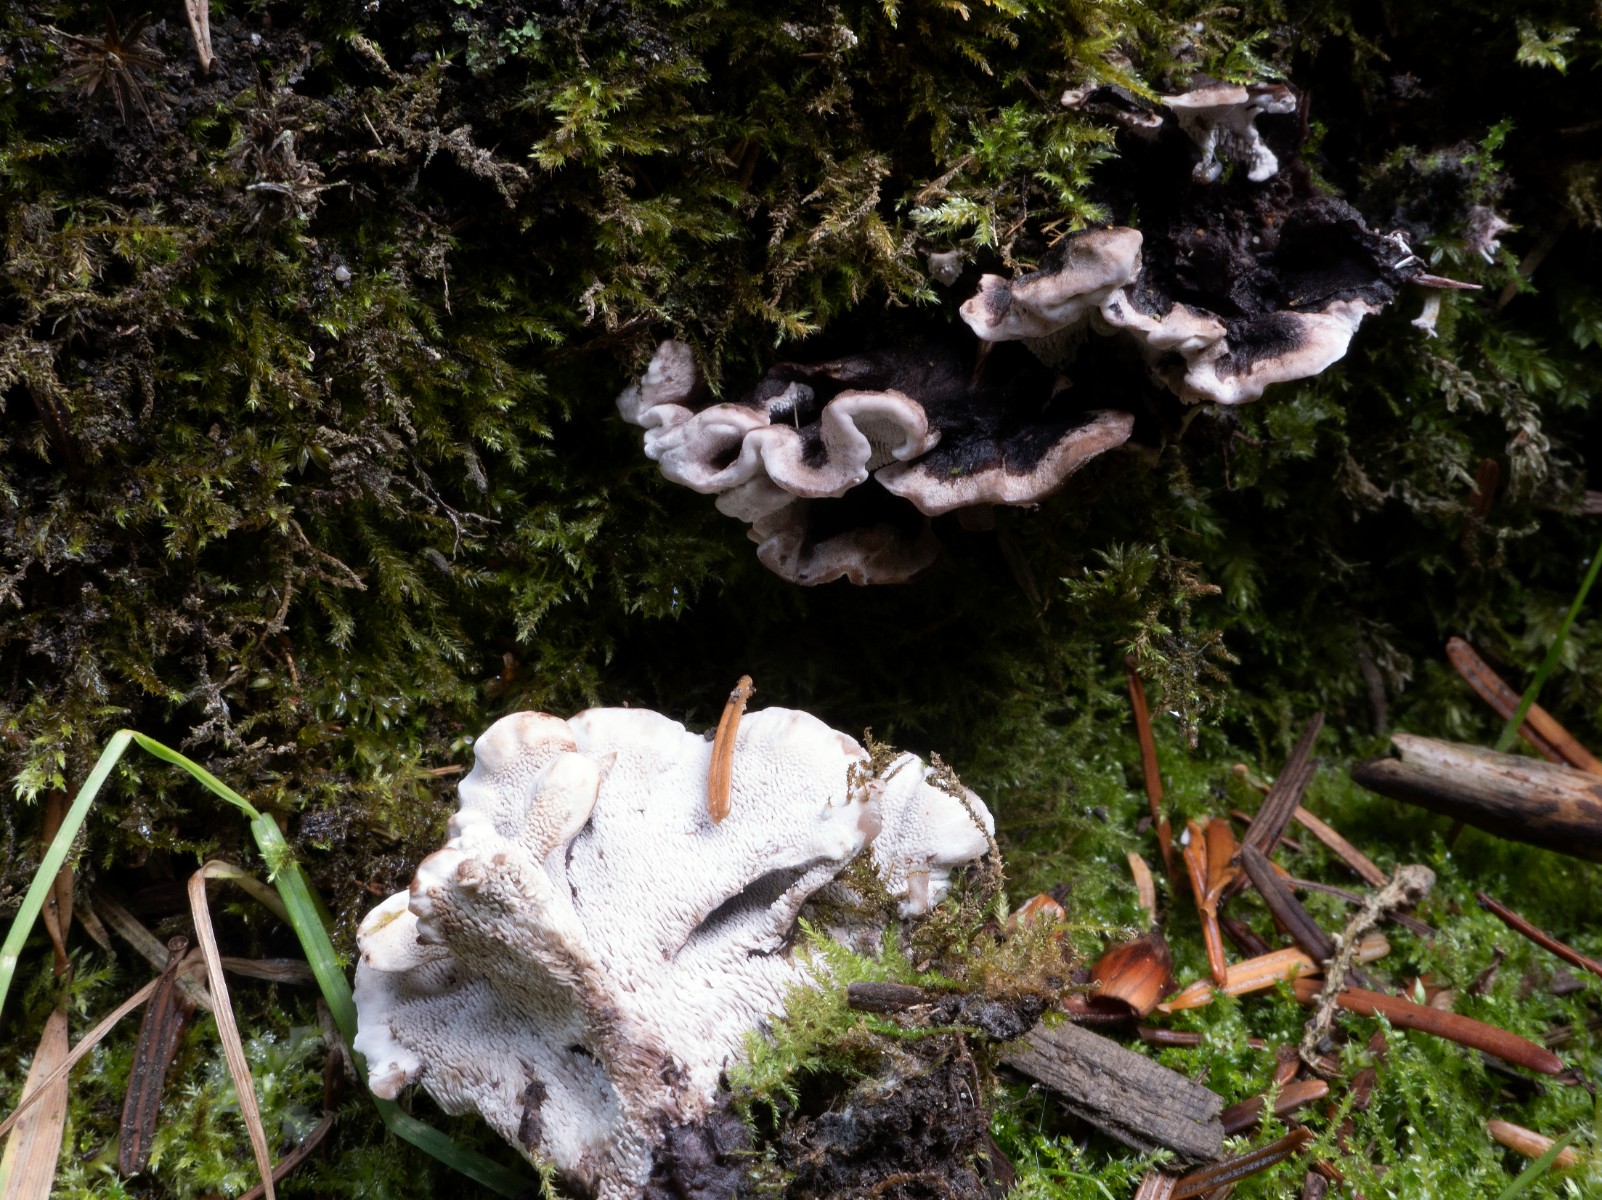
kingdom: Fungi
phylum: Basidiomycota
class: Agaricomycetes
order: Thelephorales
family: Thelephoraceae
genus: Phellodon
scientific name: Phellodon tomentosus
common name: vellugtende duftpigsvamp
